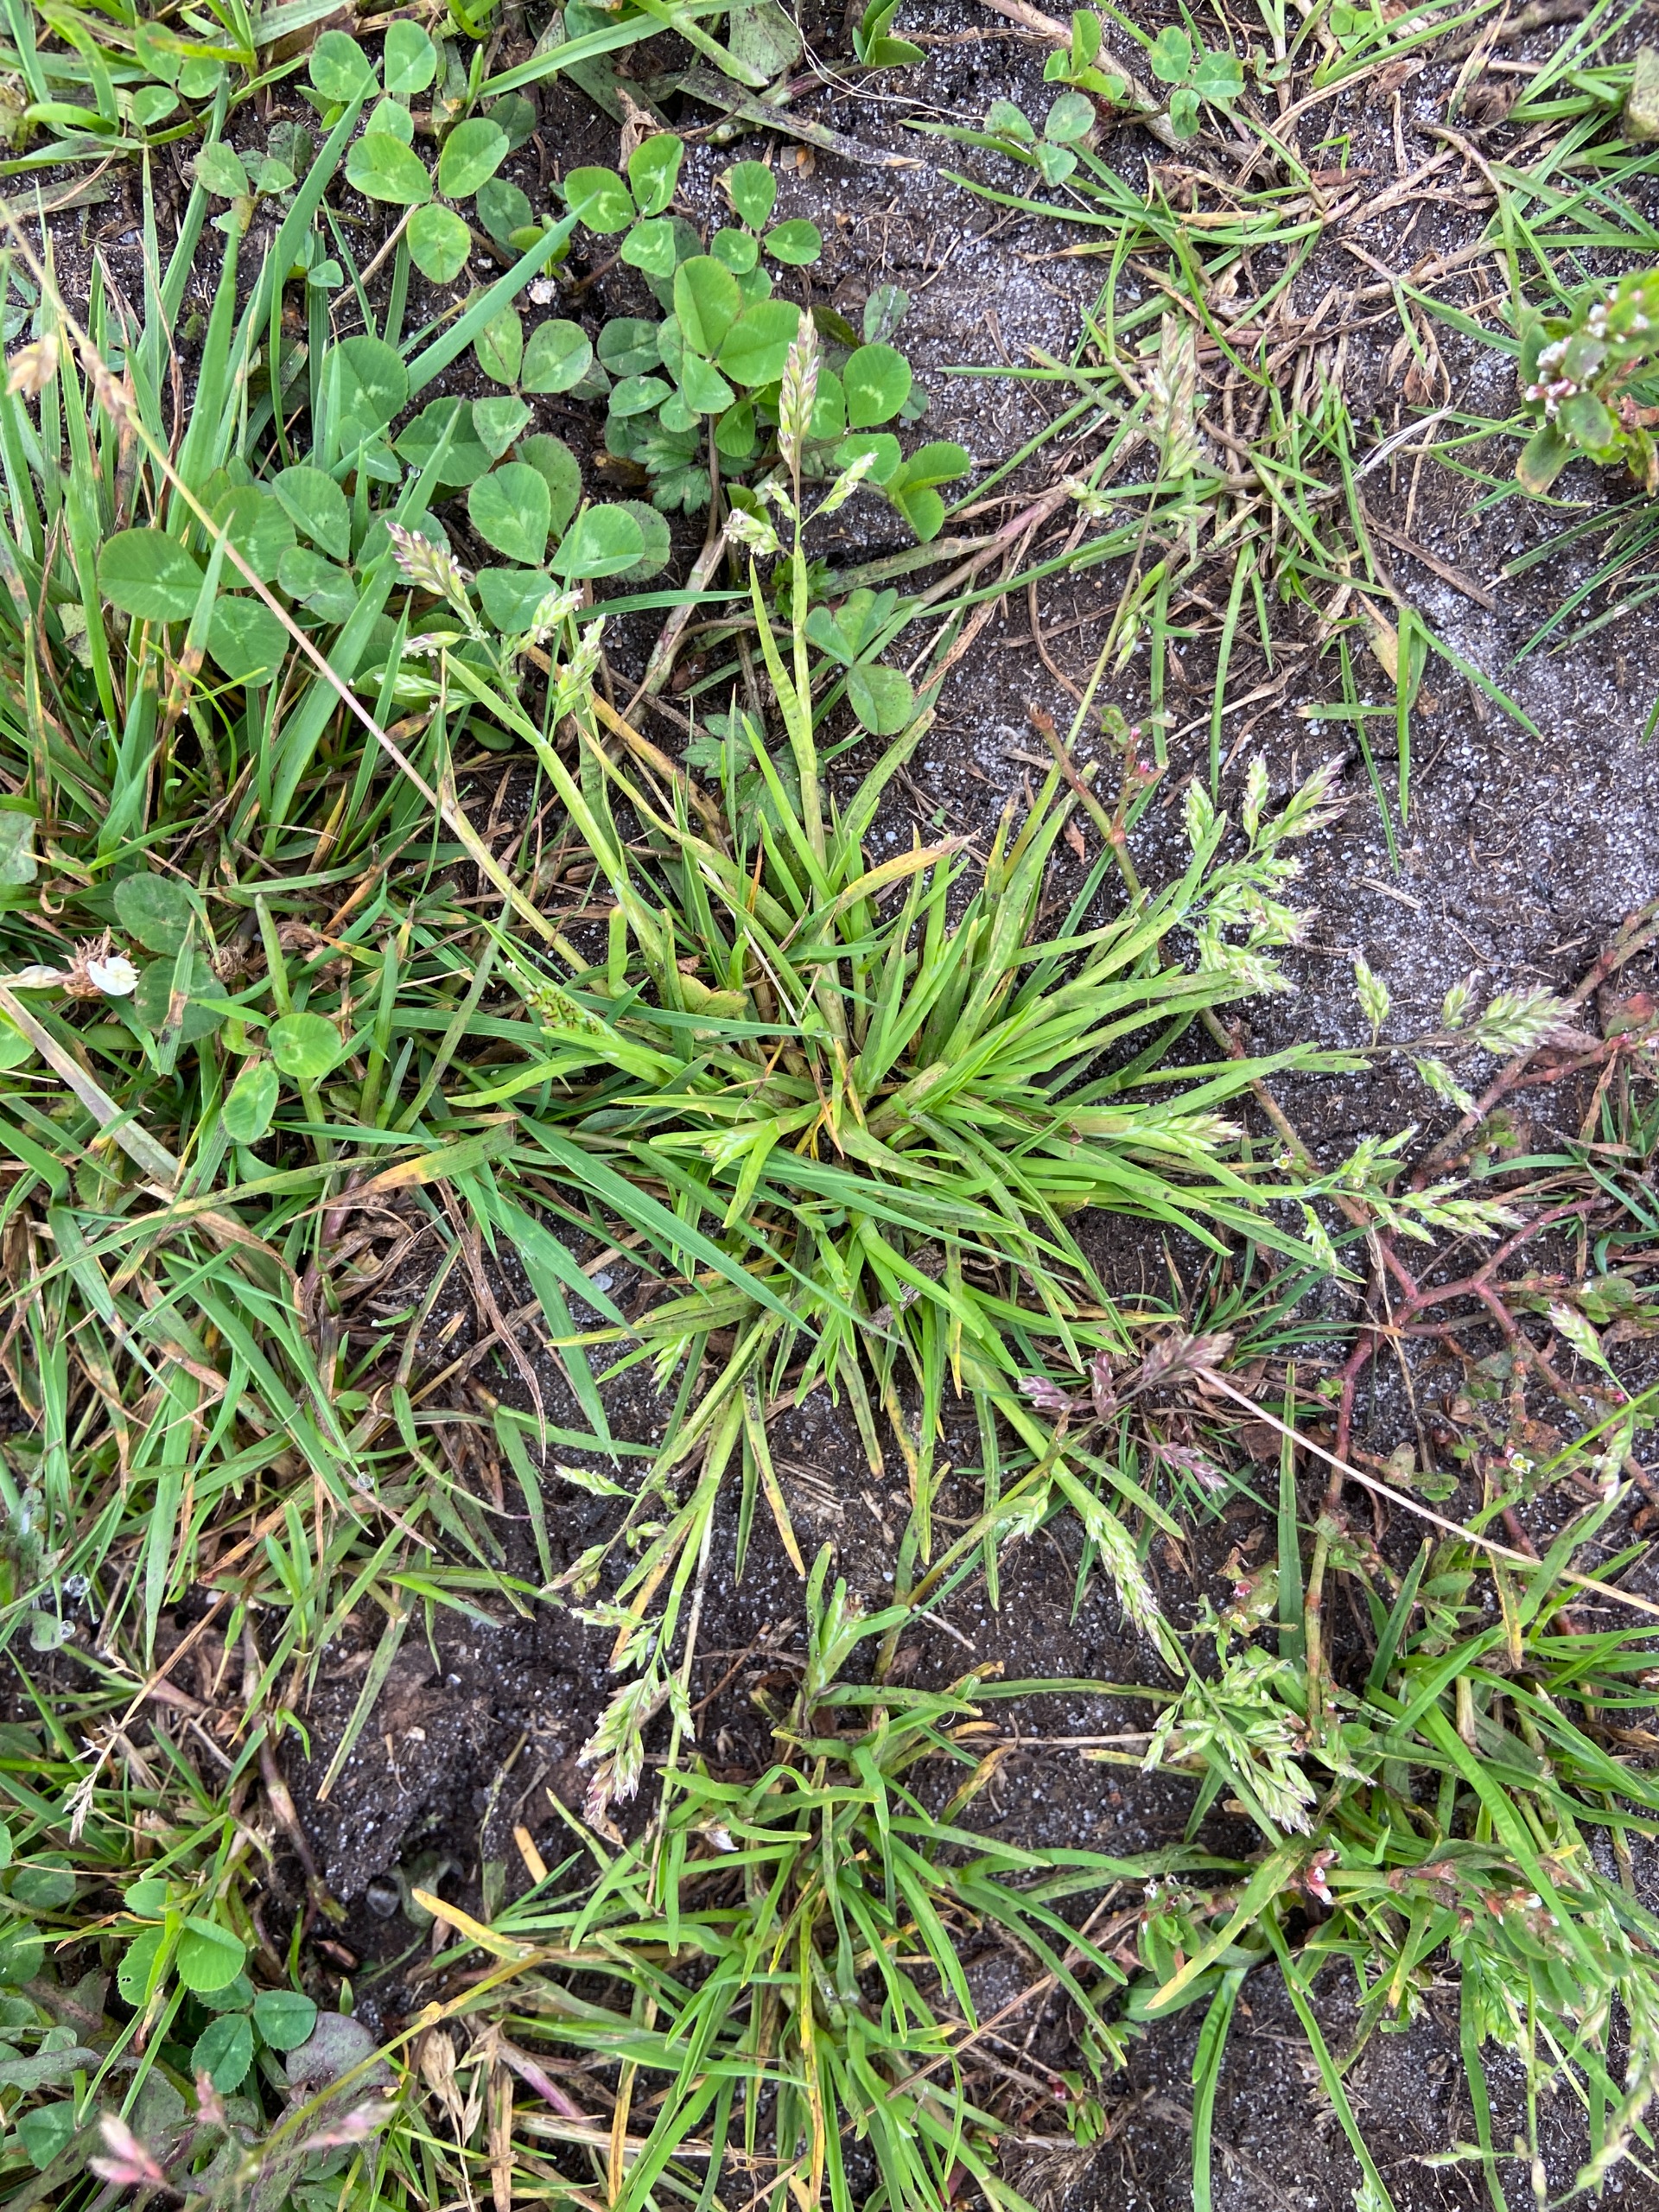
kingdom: Plantae
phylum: Tracheophyta
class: Liliopsida
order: Poales
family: Poaceae
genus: Poa
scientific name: Poa annua
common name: Enårig rapgræs
